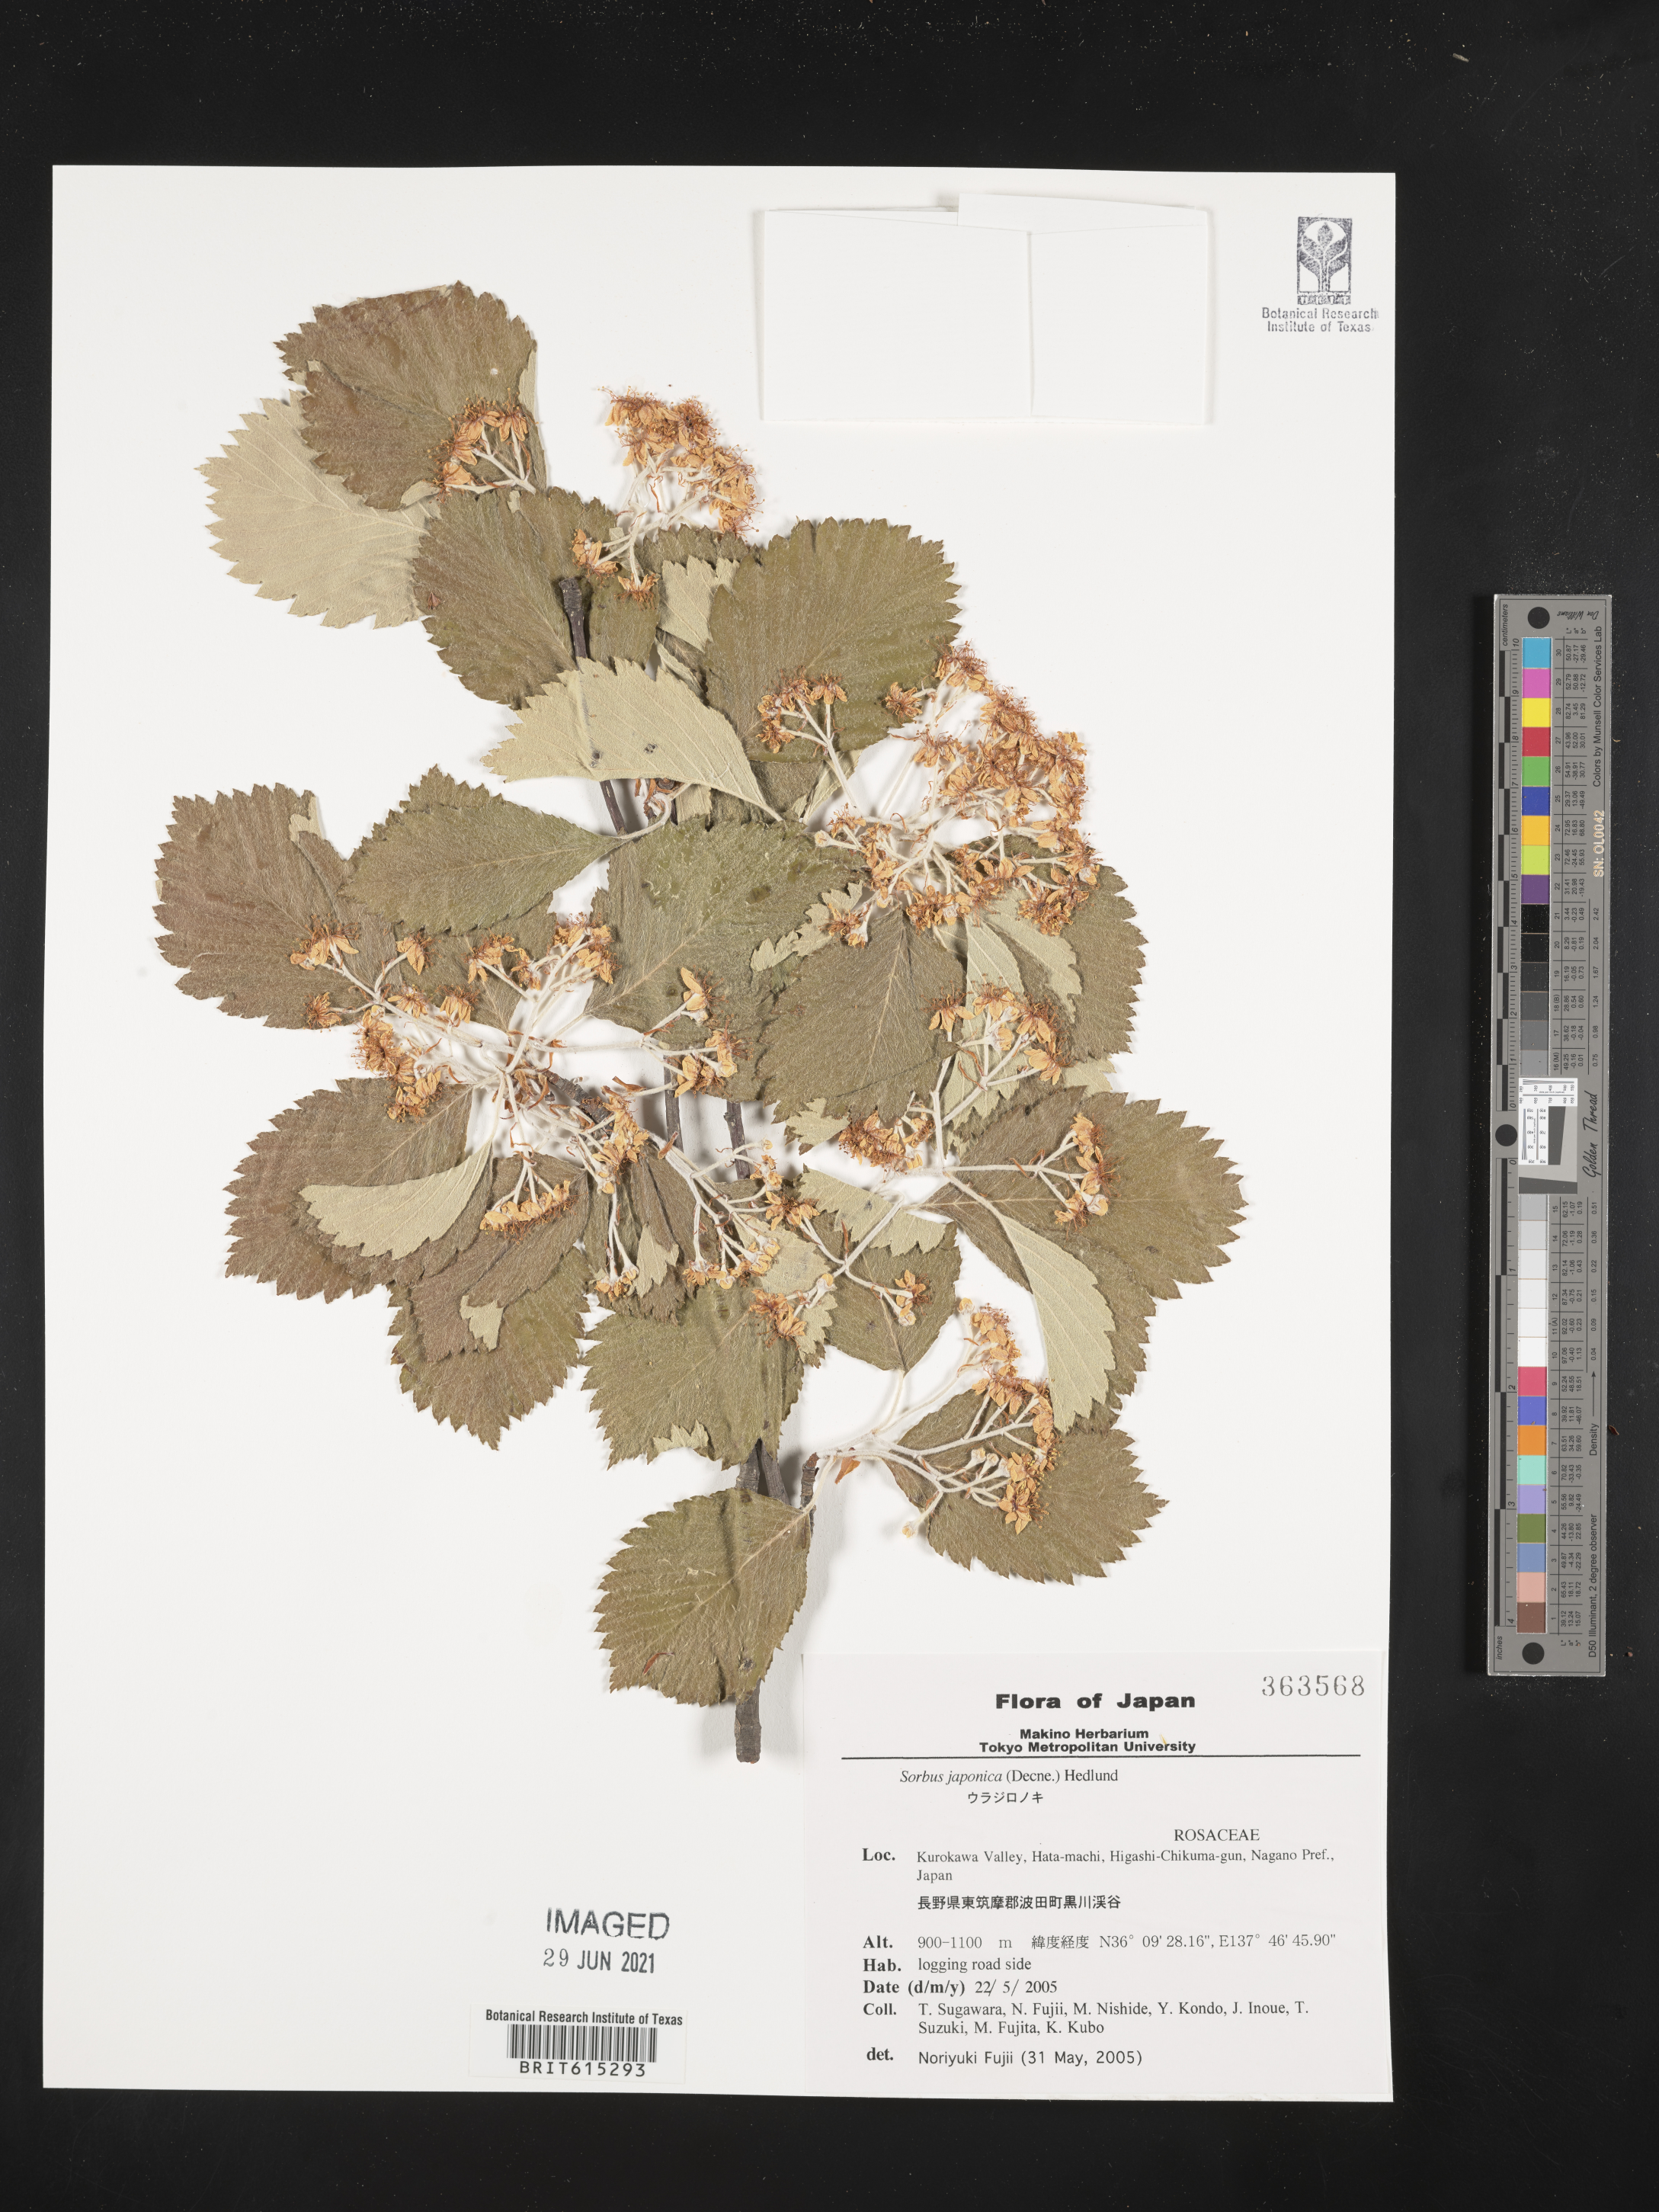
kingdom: Plantae
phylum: Tracheophyta
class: Magnoliopsida
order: Rosales
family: Rosaceae
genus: Sorbus
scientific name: Sorbus japonica
